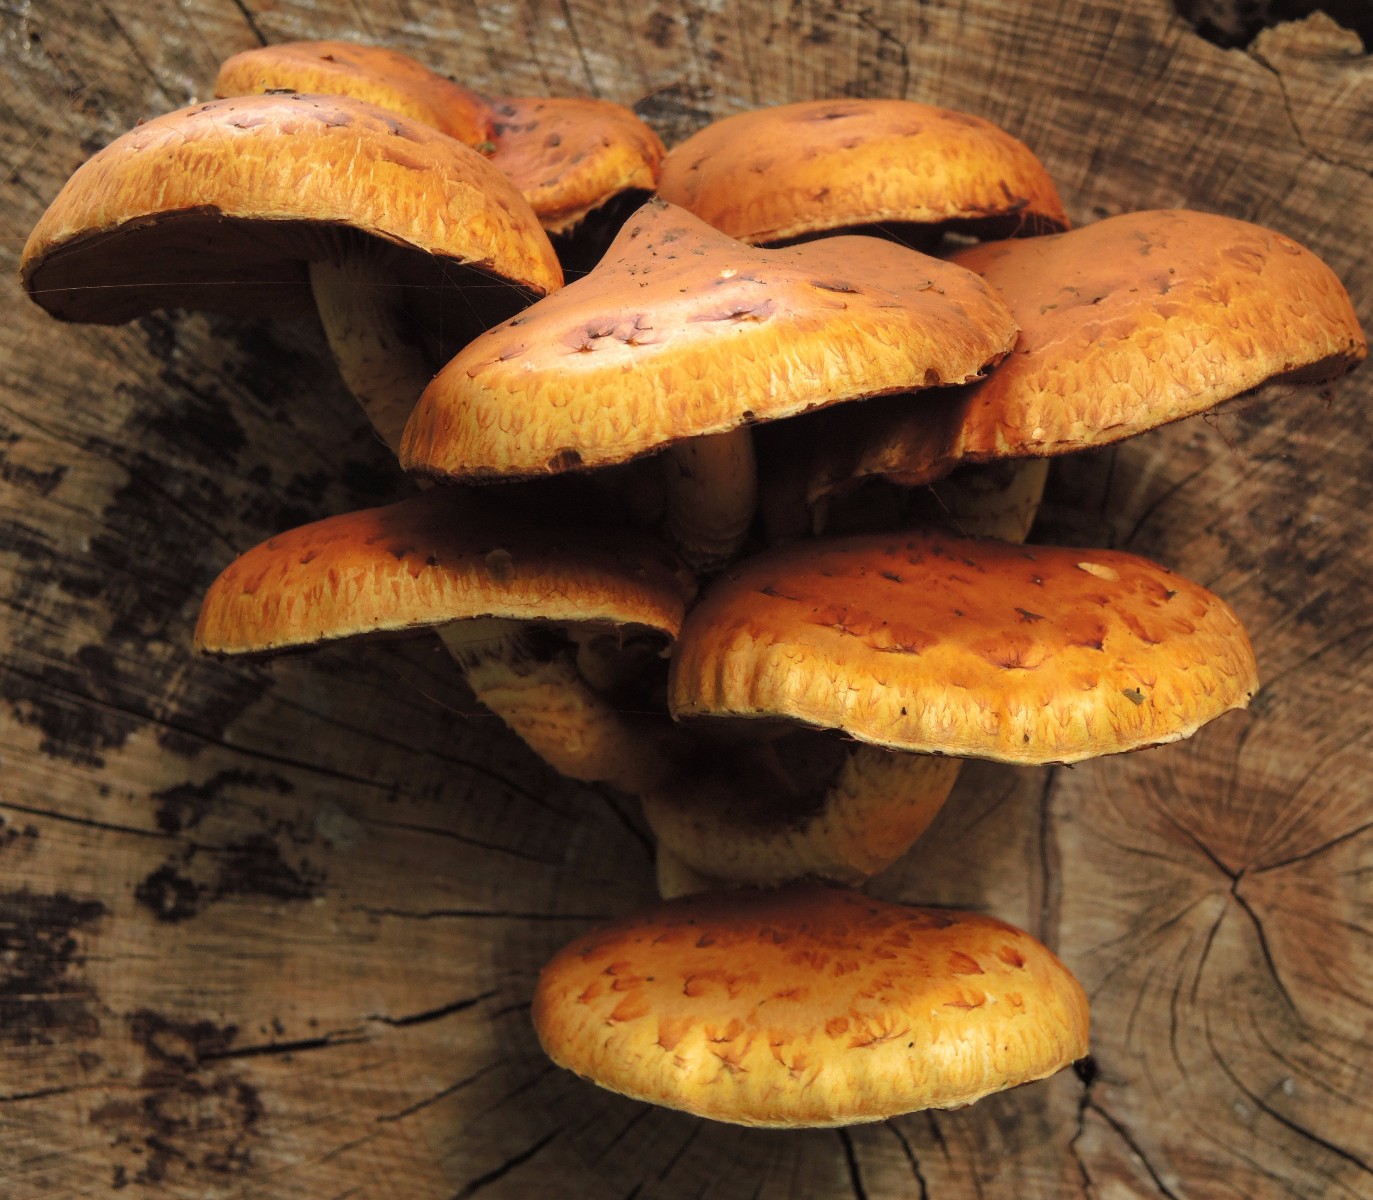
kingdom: Fungi
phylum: Basidiomycota
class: Agaricomycetes
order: Agaricales
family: Strophariaceae
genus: Pholiota
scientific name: Pholiota adiposa
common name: højtsiddende skælhat
